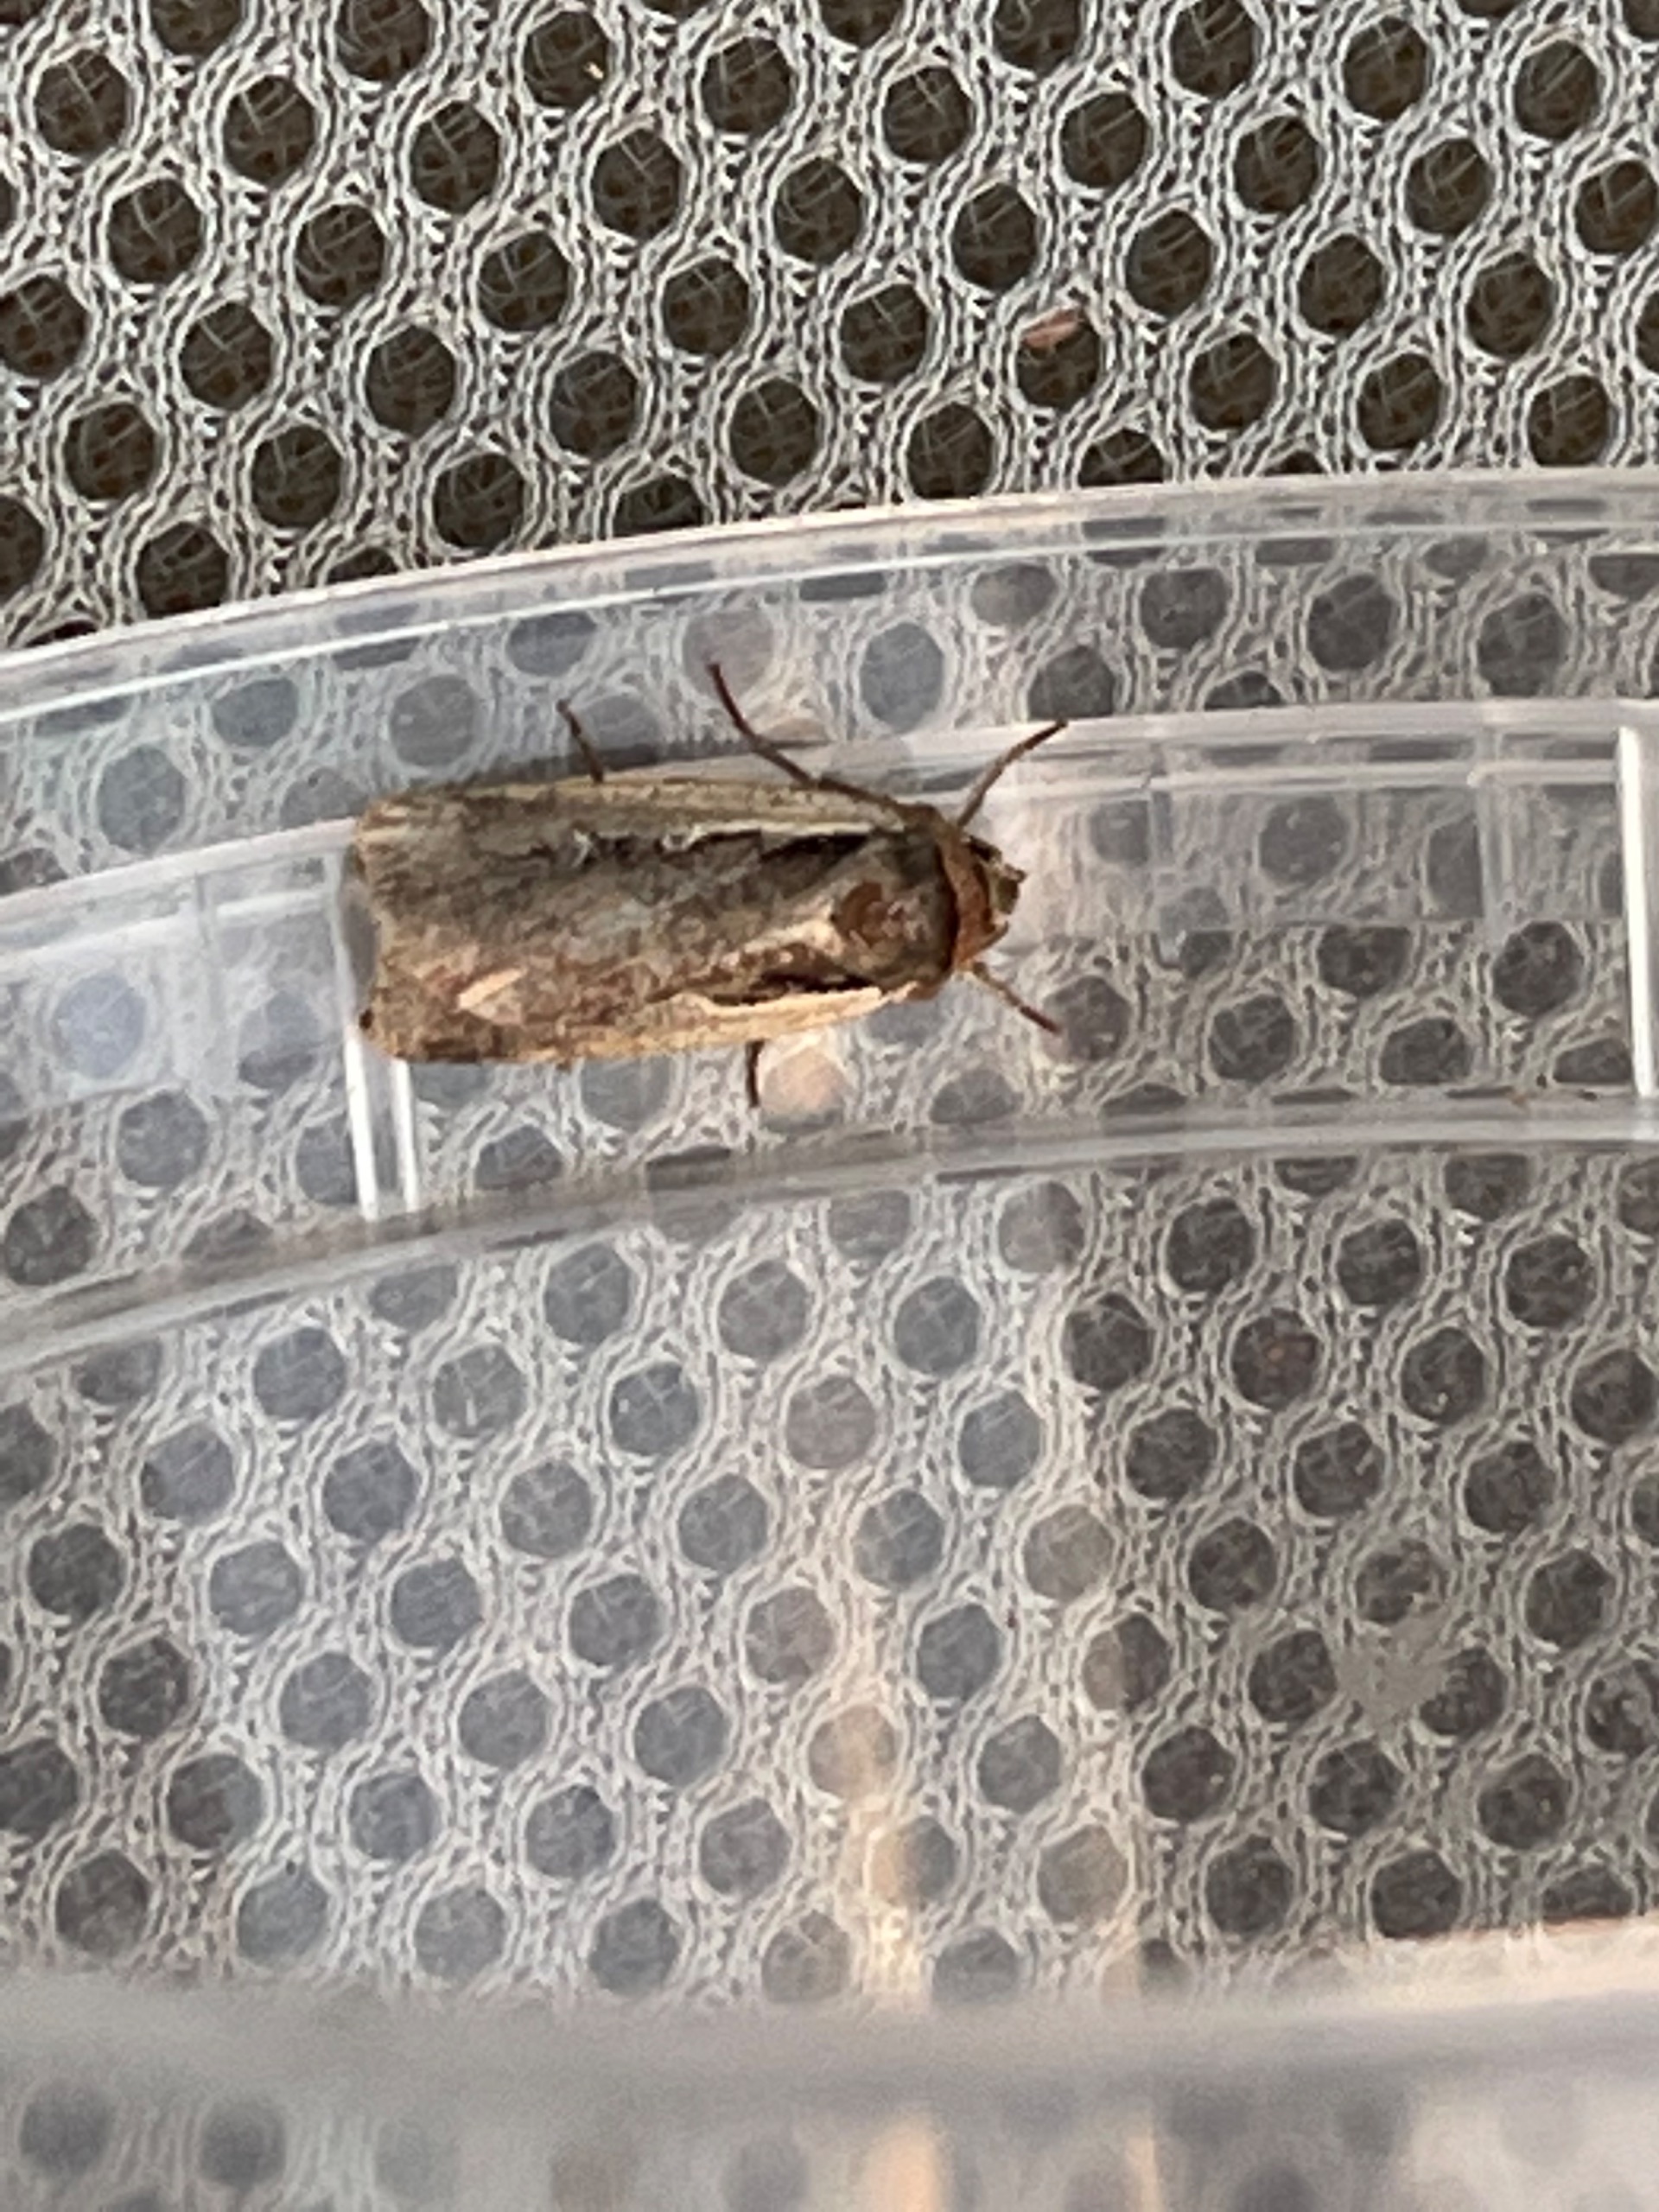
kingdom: Animalia
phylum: Arthropoda
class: Insecta
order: Lepidoptera
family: Noctuidae
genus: Ochropleura
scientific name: Ochropleura plecta
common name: Hvidrandet jordugle
